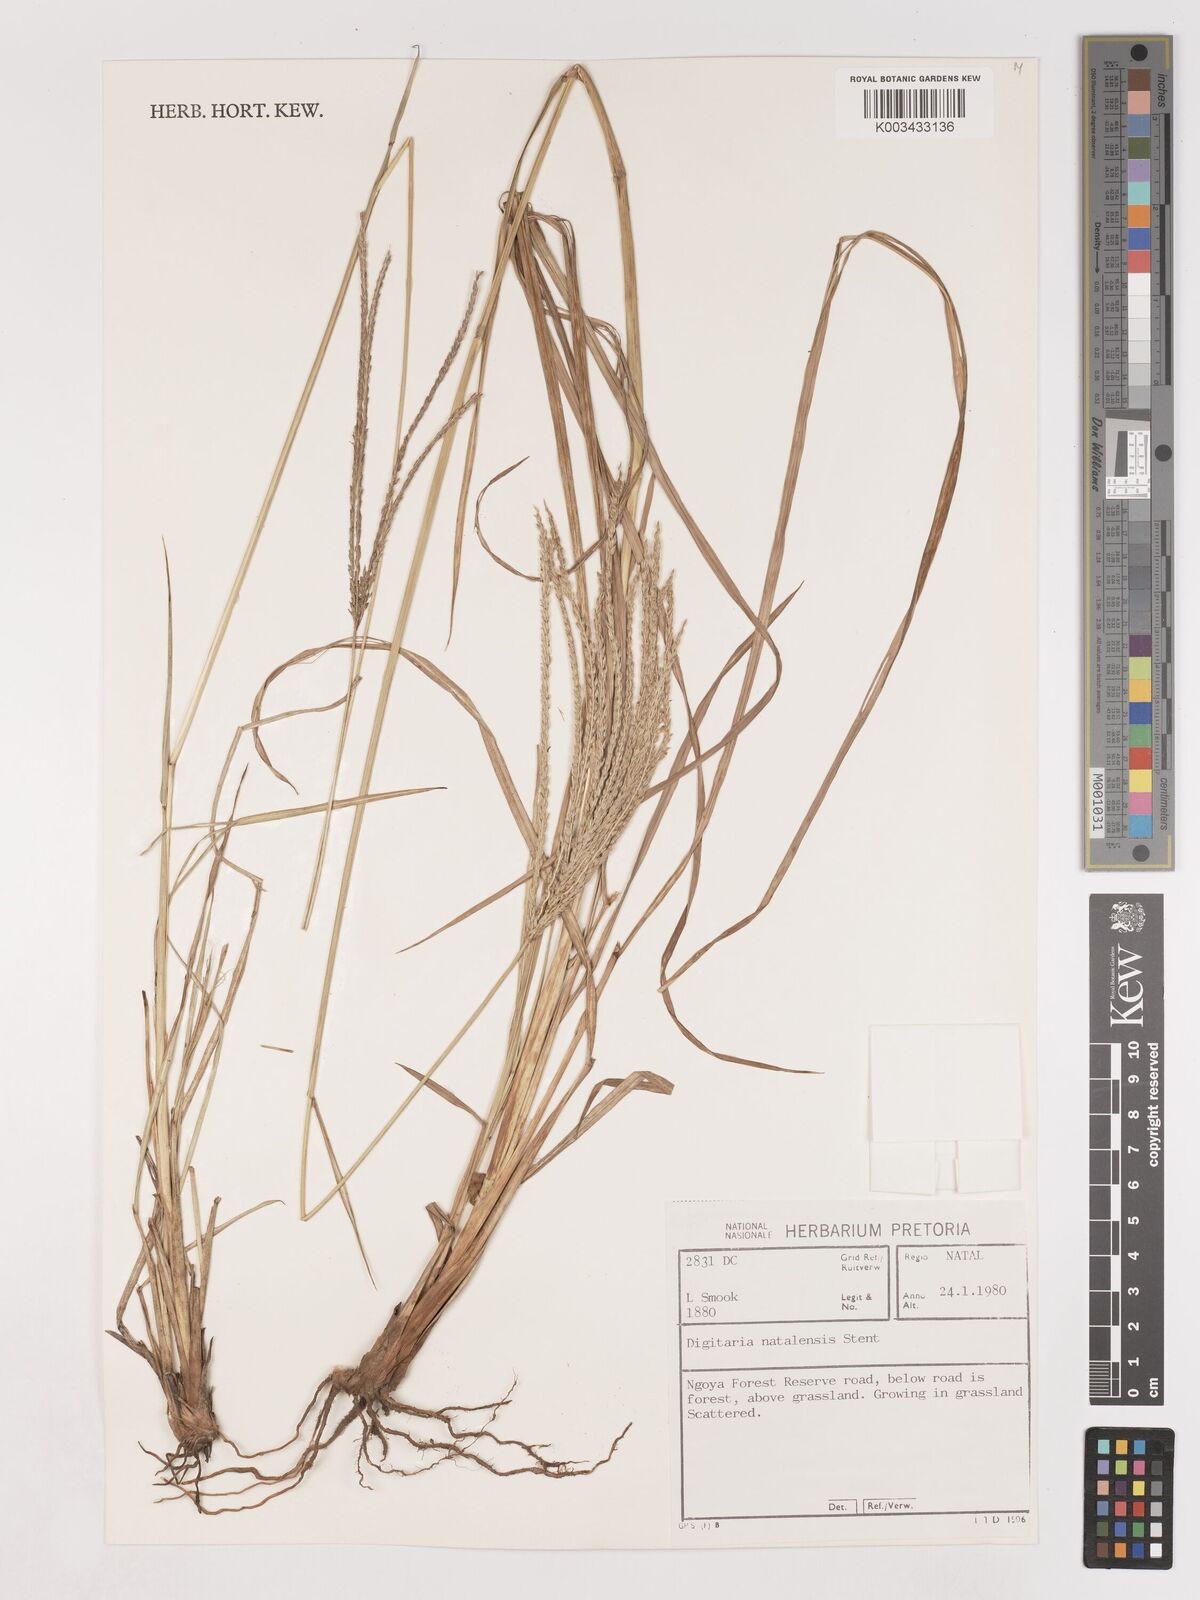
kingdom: Plantae
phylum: Tracheophyta
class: Liliopsida
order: Poales
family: Poaceae
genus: Digitaria
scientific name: Digitaria natalensis
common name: Coast finger grass
